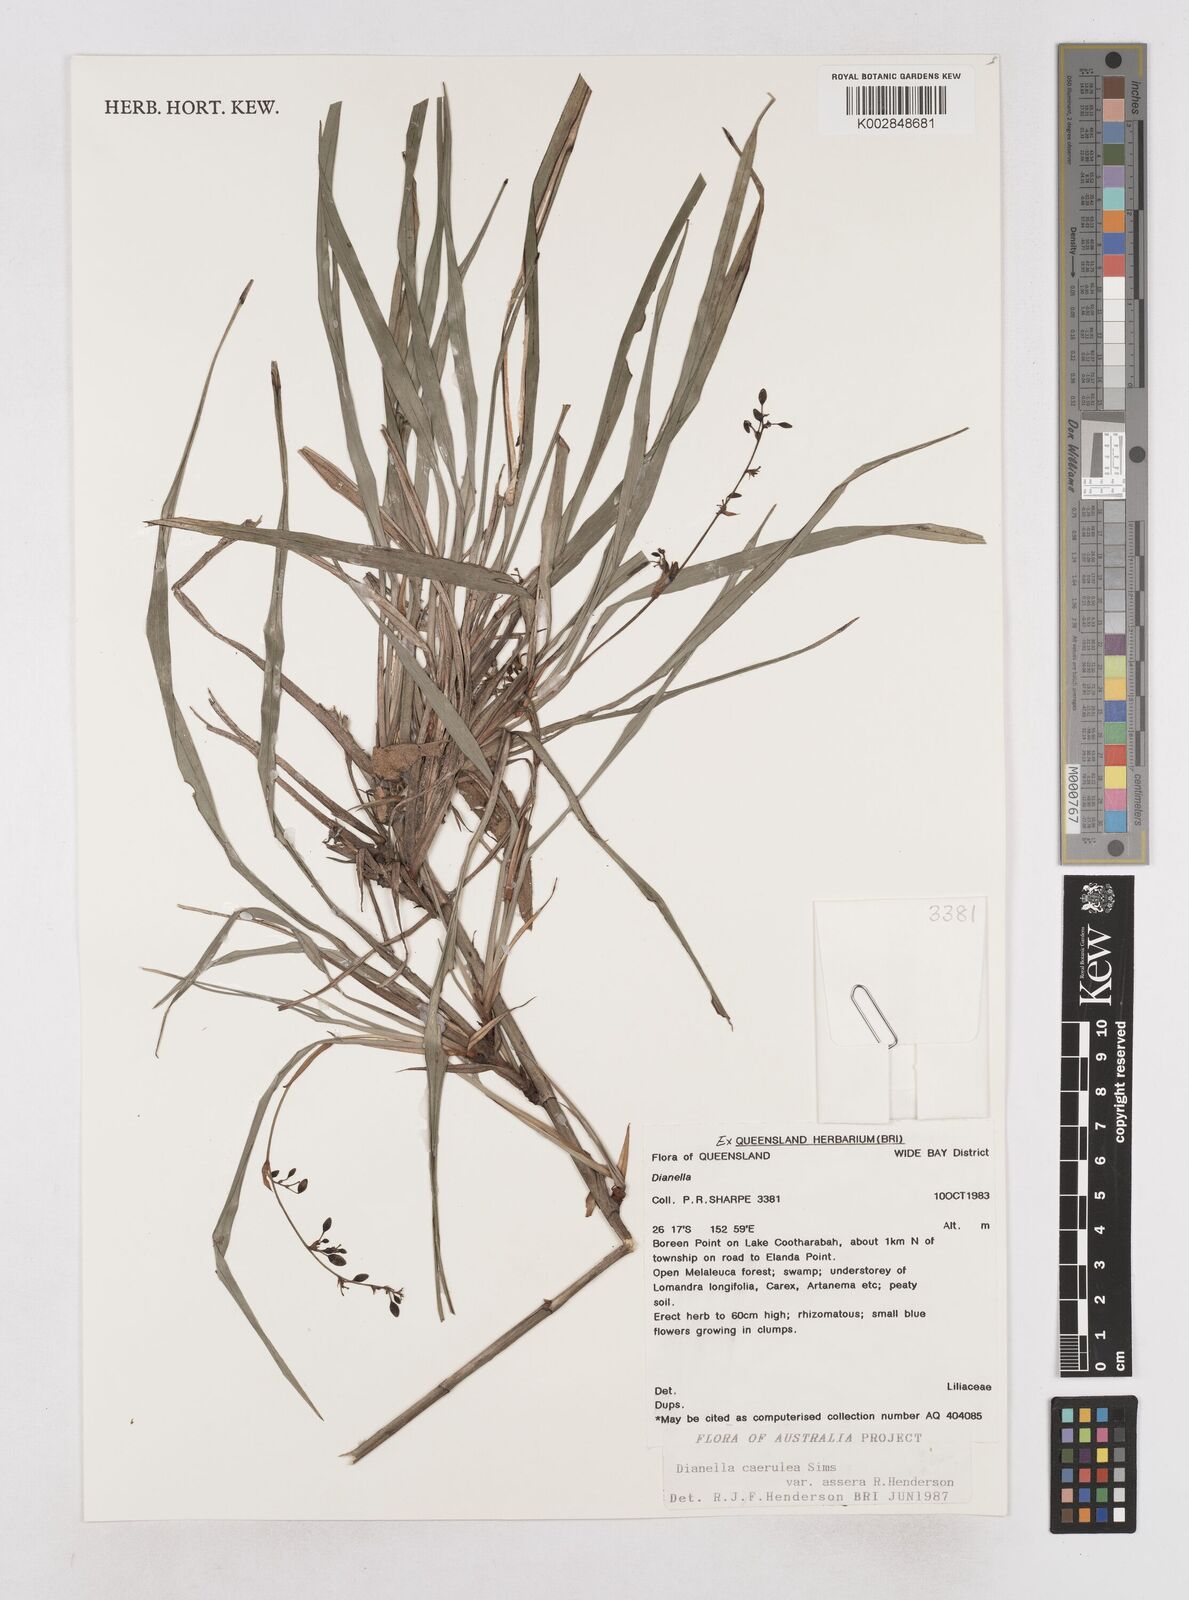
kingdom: Plantae
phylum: Tracheophyta
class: Liliopsida
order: Asparagales
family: Asphodelaceae
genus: Dianella
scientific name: Dianella caerulea
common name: Blue flax-lily
